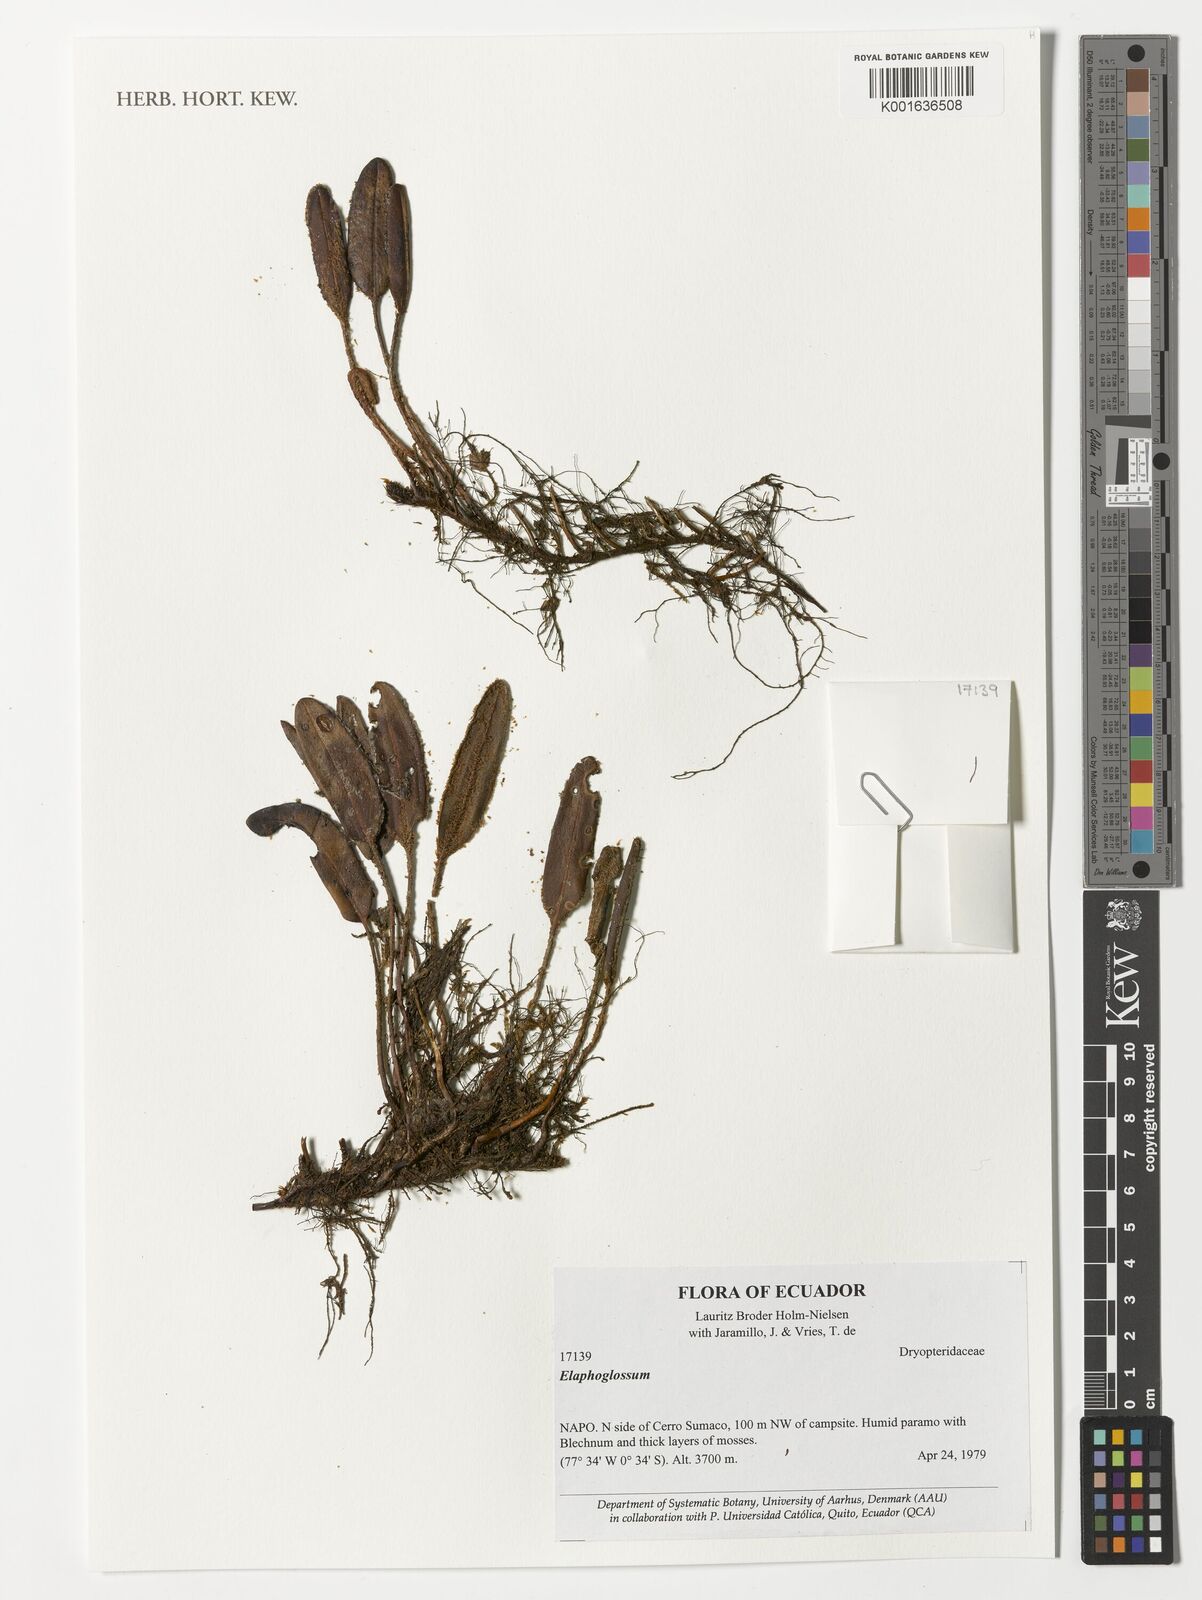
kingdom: Plantae
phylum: Tracheophyta
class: Polypodiopsida
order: Polypodiales
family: Dryopteridaceae
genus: Elaphoglossum
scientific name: Elaphoglossum
